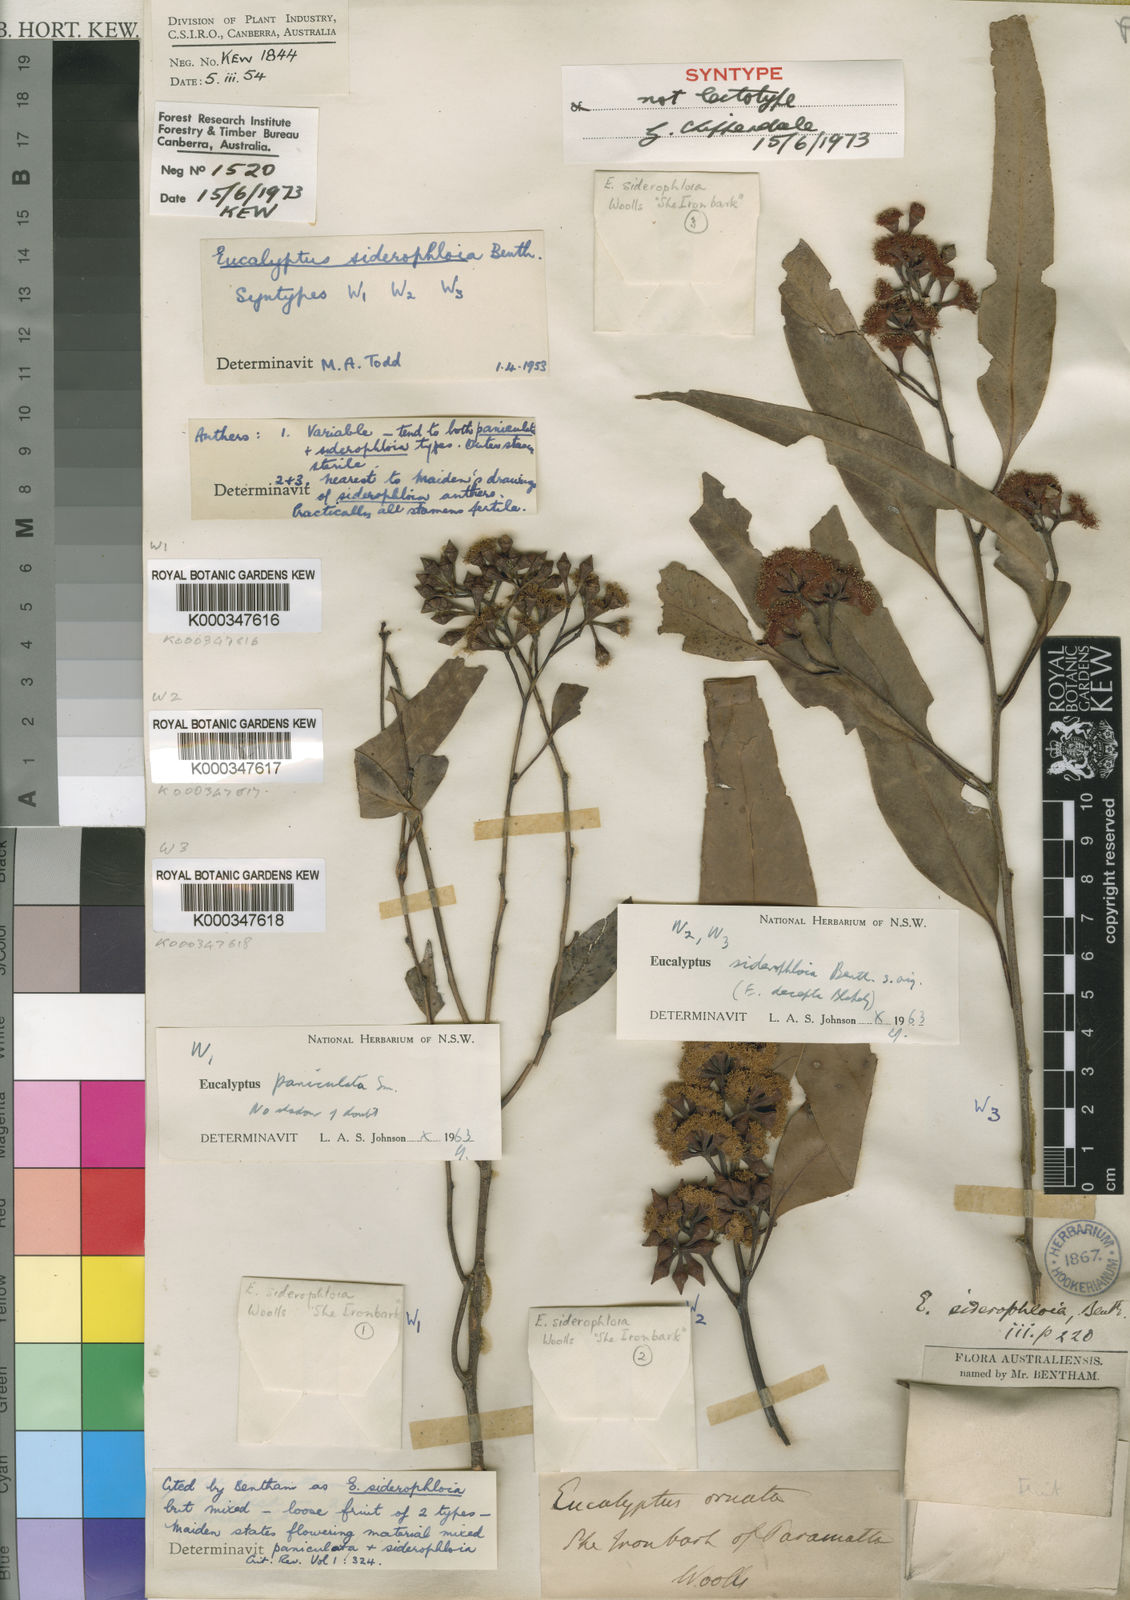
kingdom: Plantae
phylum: Tracheophyta
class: Magnoliopsida
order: Myrtales
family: Myrtaceae
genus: Eucalyptus
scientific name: Eucalyptus
